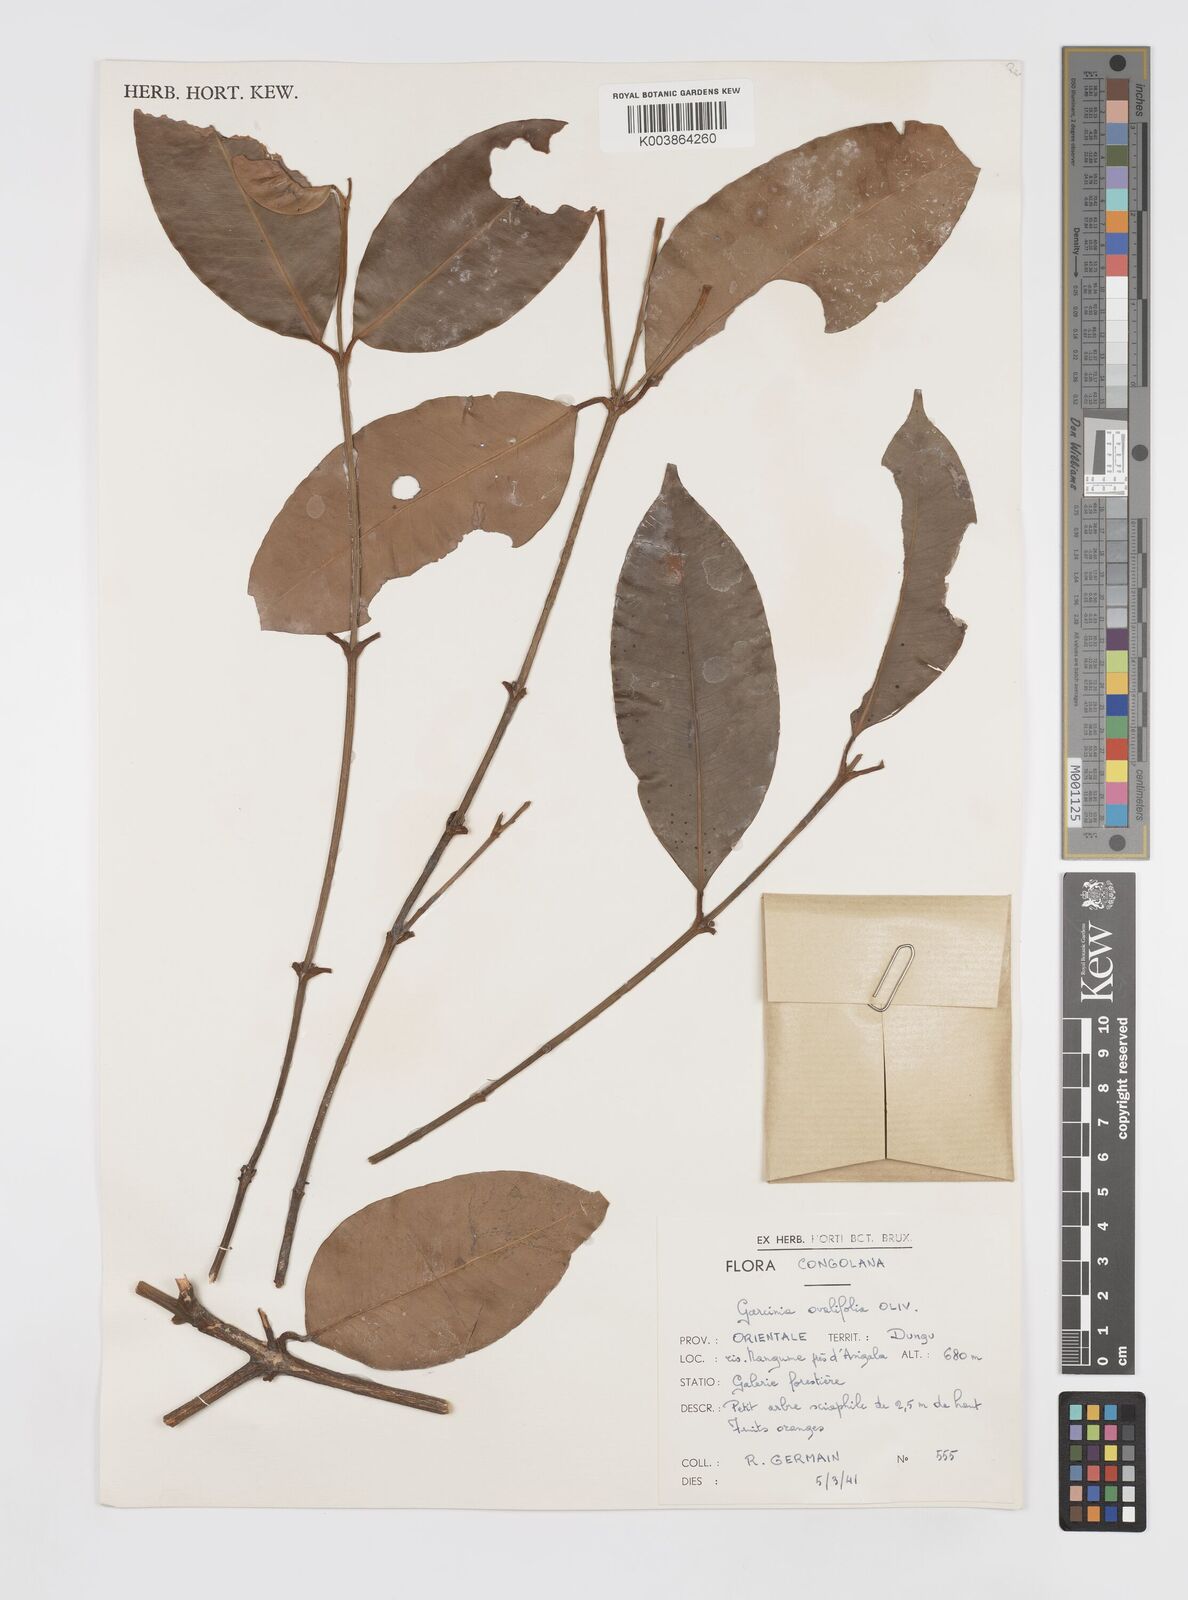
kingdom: Plantae
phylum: Tracheophyta
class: Magnoliopsida
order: Malpighiales
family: Clusiaceae
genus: Garcinia
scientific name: Garcinia ovalifolia
